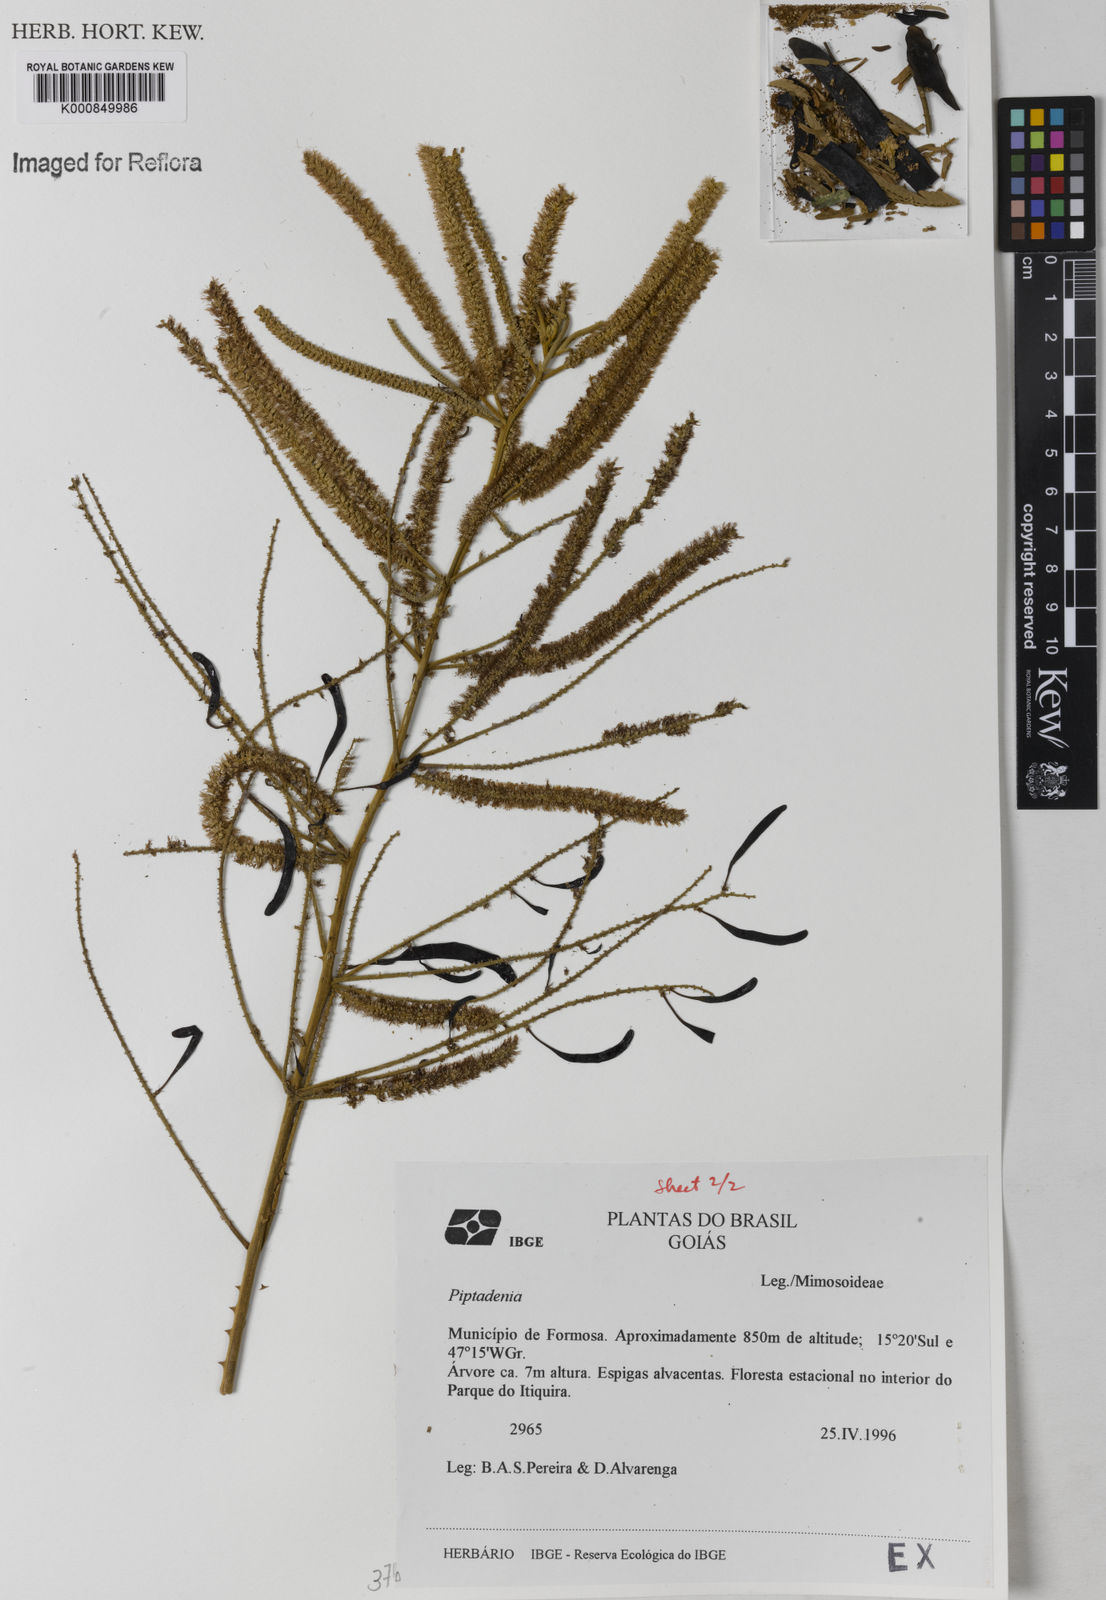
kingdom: Plantae
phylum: Tracheophyta
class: Magnoliopsida
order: Fabales
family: Fabaceae
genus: Piptadenia
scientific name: Piptadenia
